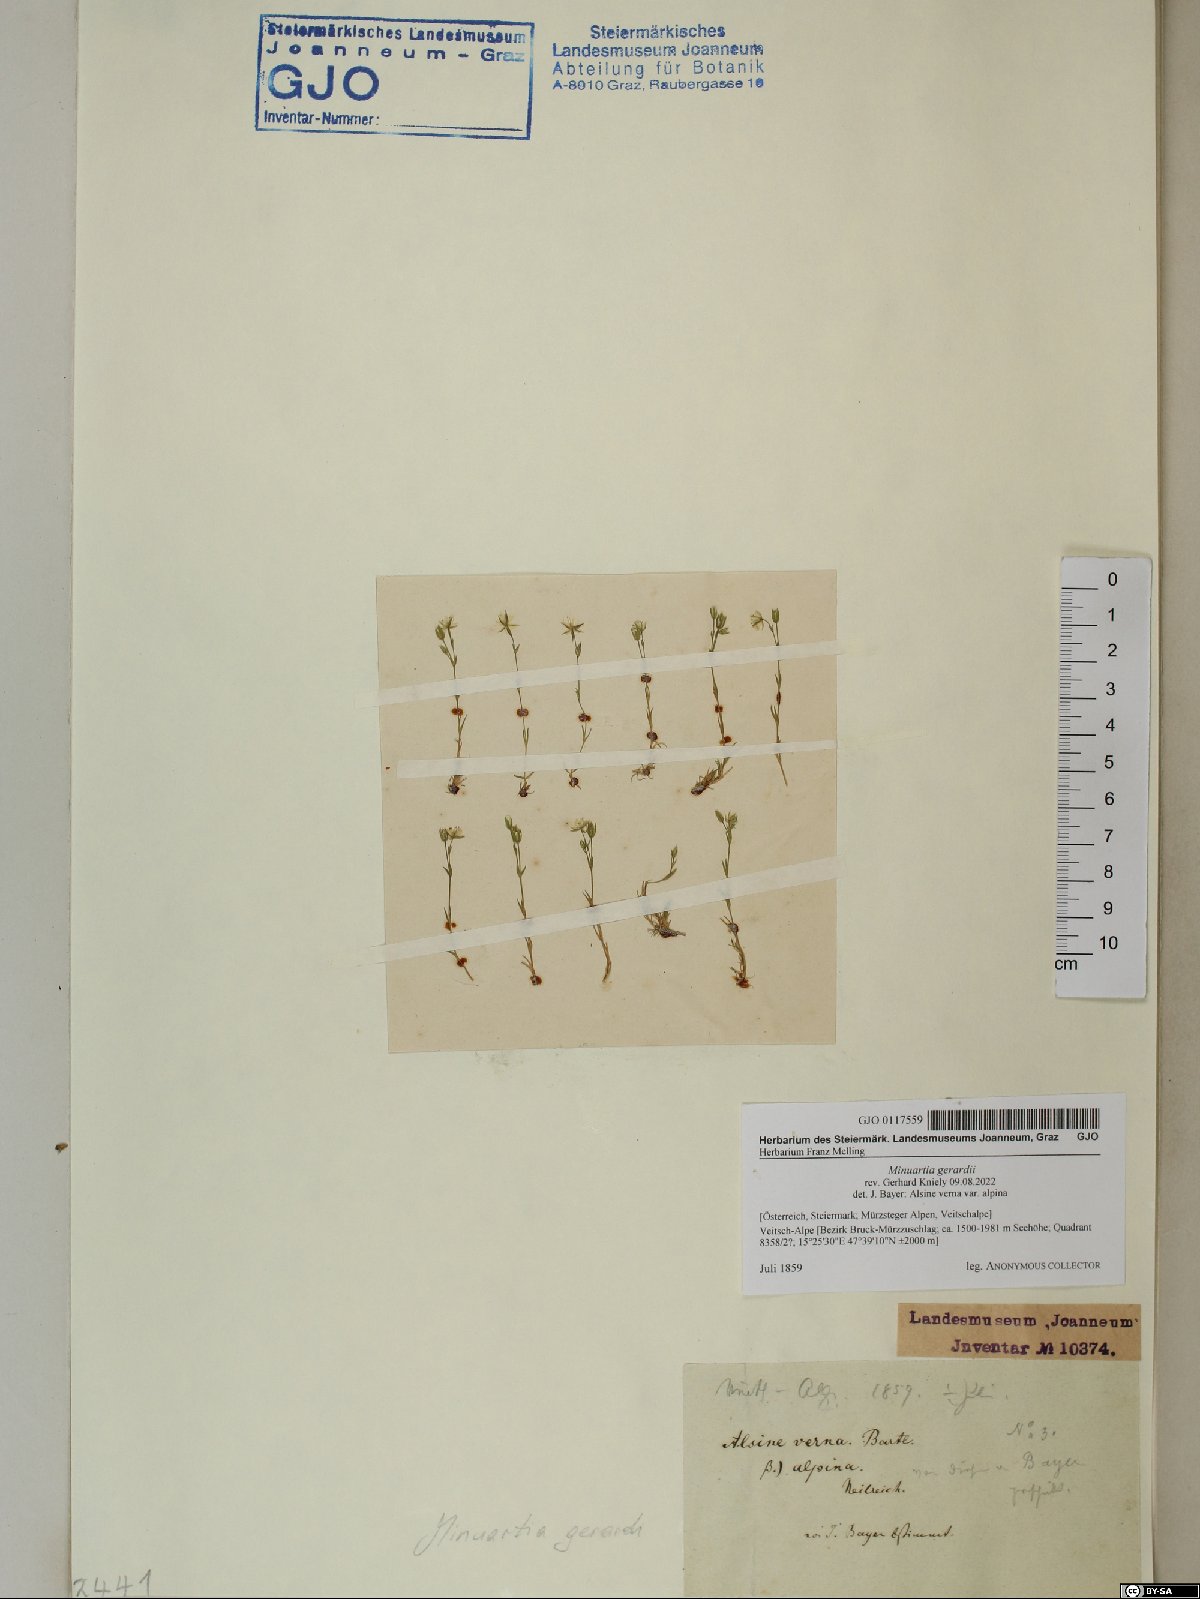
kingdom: Plantae
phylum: Tracheophyta
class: Magnoliopsida
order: Caryophyllales
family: Caryophyllaceae
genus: Sabulina
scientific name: Sabulina verna
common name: Spring sandwort
